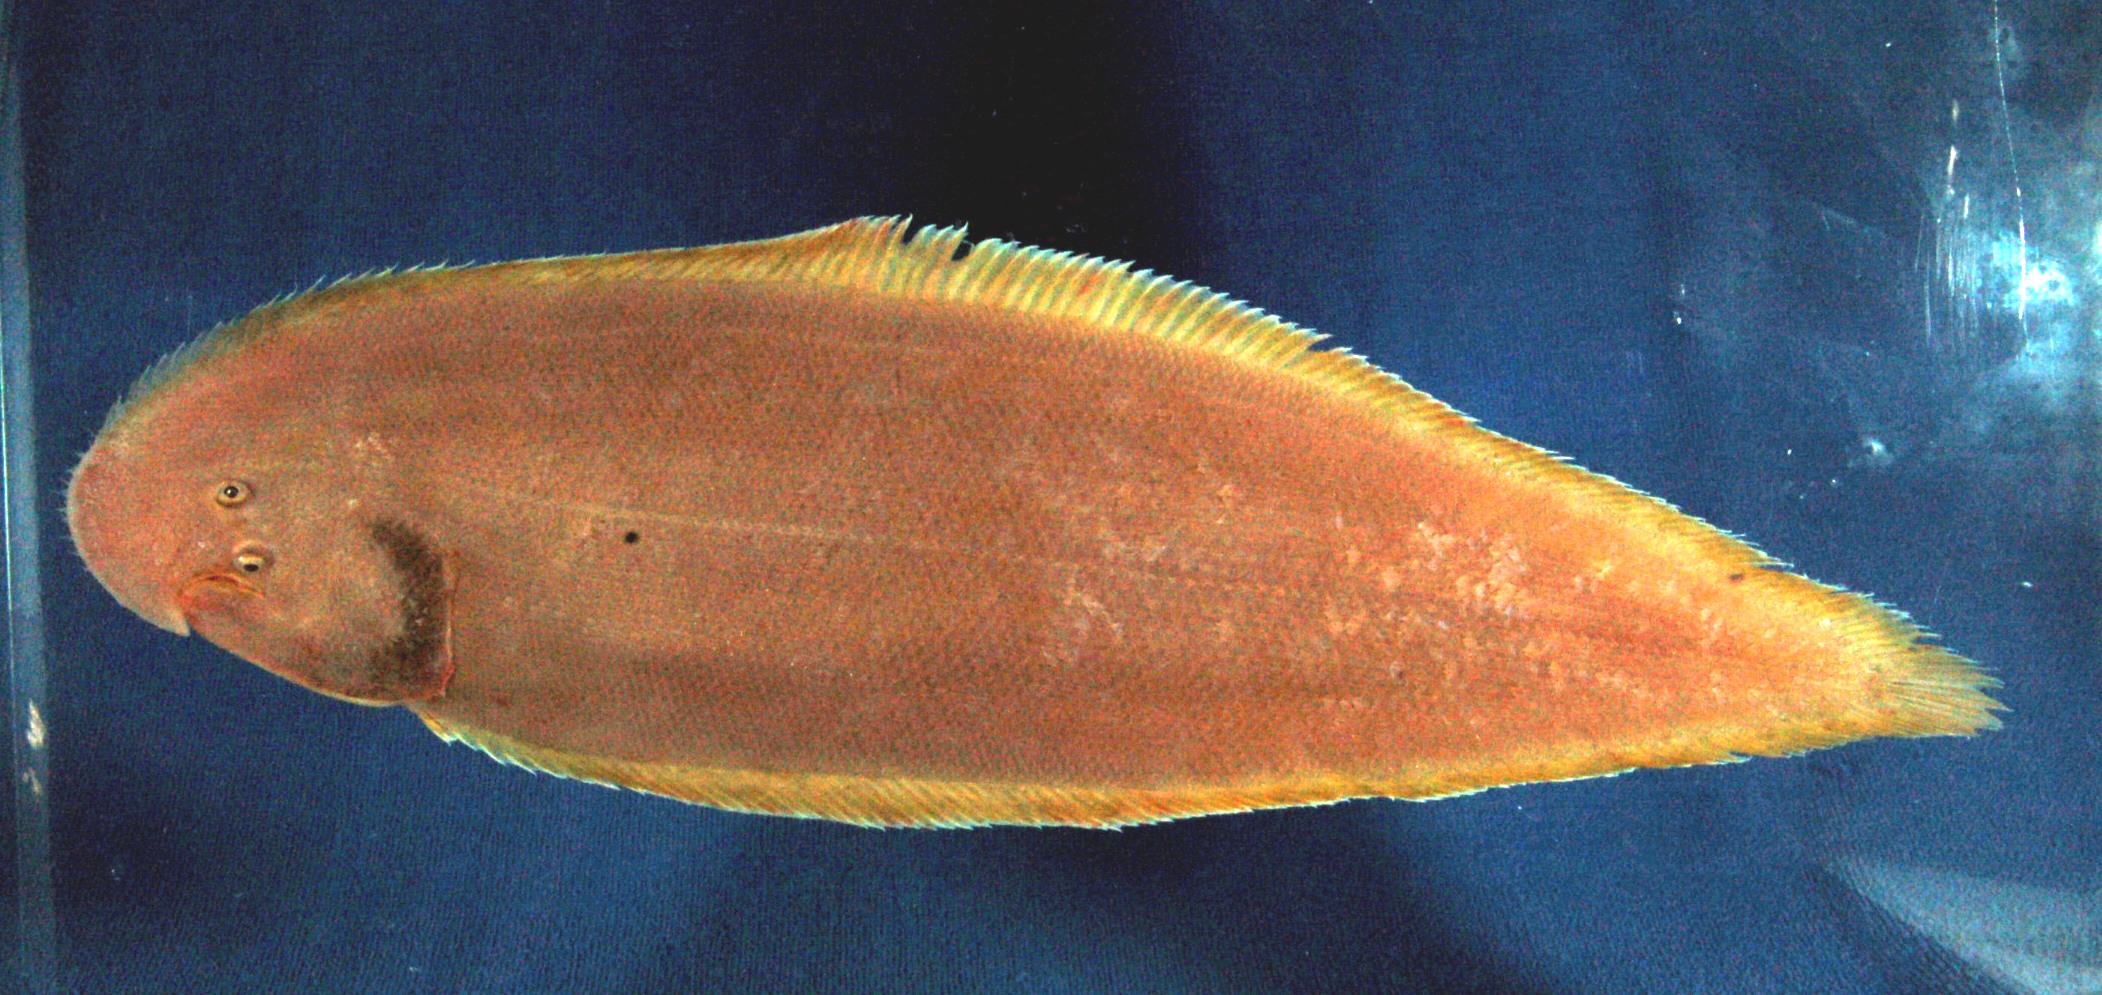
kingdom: Animalia
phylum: Chordata
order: Pleuronectiformes
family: Cynoglossidae
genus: Cynoglossus
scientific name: Cynoglossus lachneri
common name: Lachner's tonguesole
